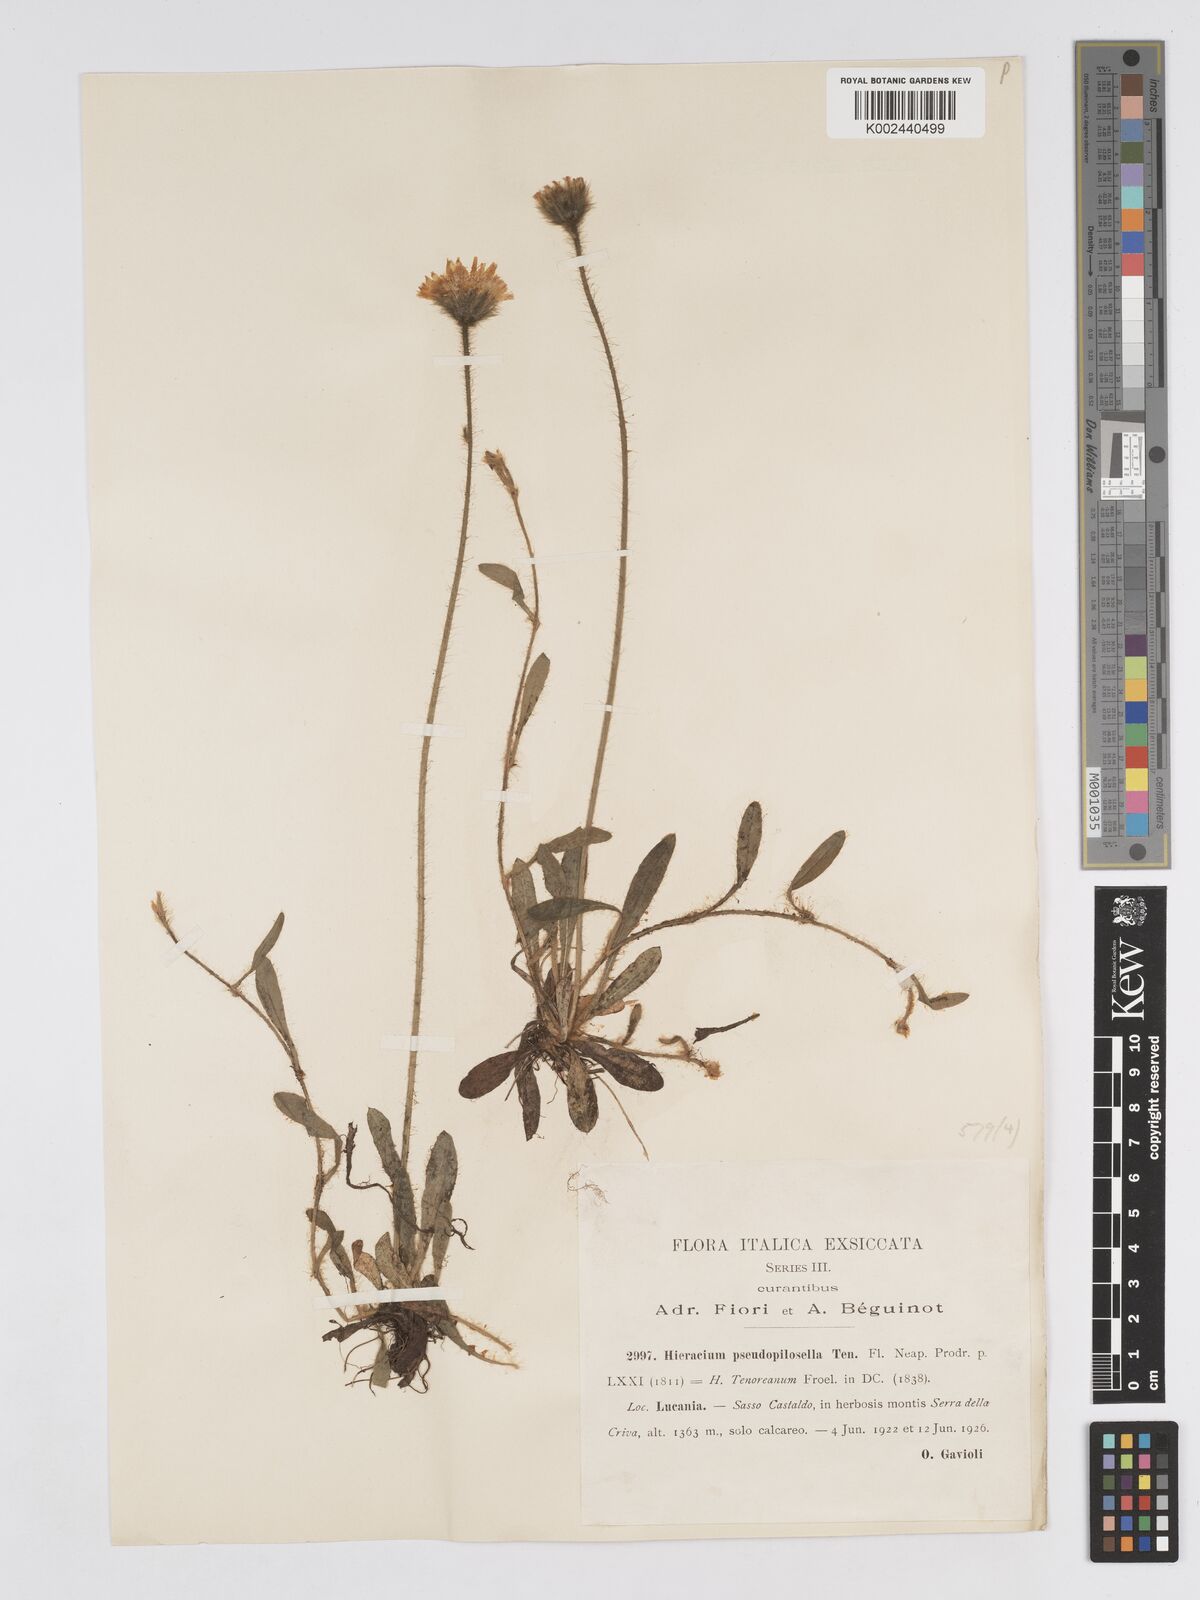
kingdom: Plantae
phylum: Tracheophyta
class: Magnoliopsida
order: Asterales
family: Asteraceae
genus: Pilosella
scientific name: Pilosella pseudopilosella
